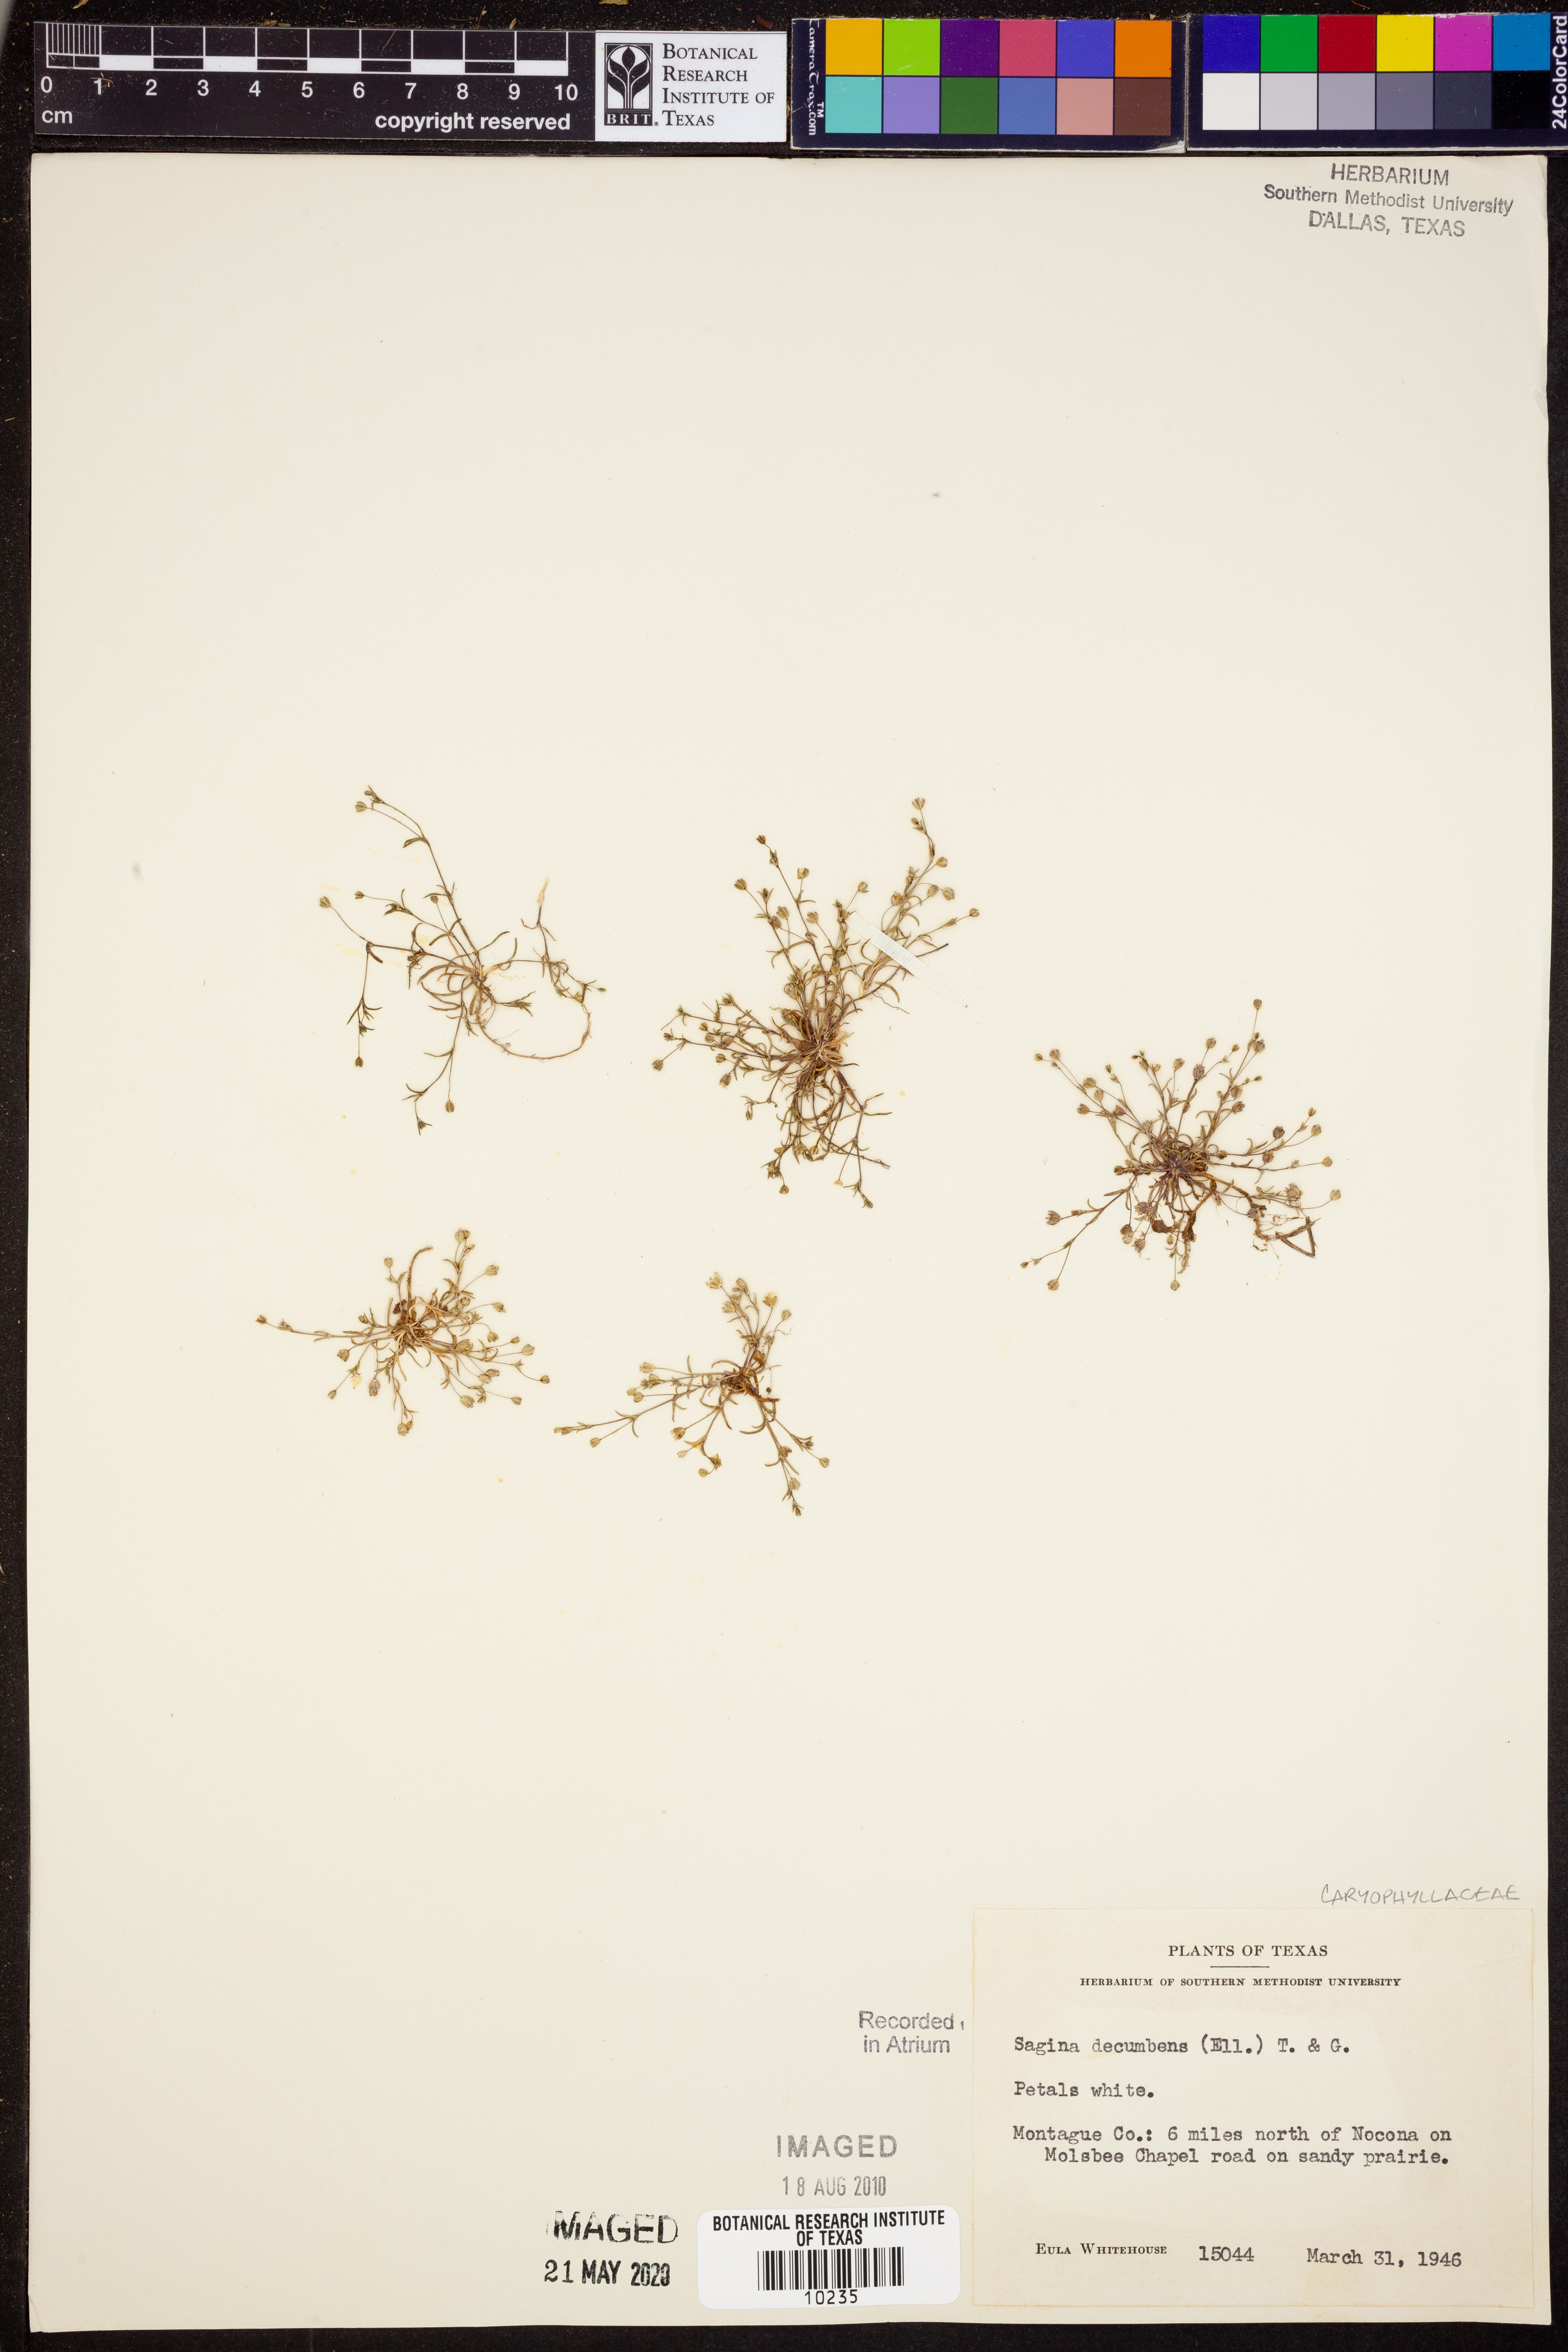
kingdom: Plantae
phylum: Tracheophyta
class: Magnoliopsida
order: Caryophyllales
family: Caryophyllaceae
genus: Sagina
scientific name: Sagina decumbens
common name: Decumbent pearlwort
